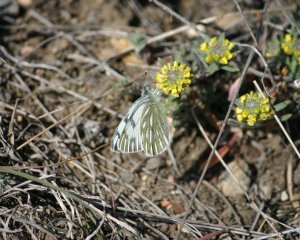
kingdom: Animalia
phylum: Arthropoda
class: Insecta
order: Lepidoptera
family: Pieridae
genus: Pontia
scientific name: Pontia occidentalis
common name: Western White
